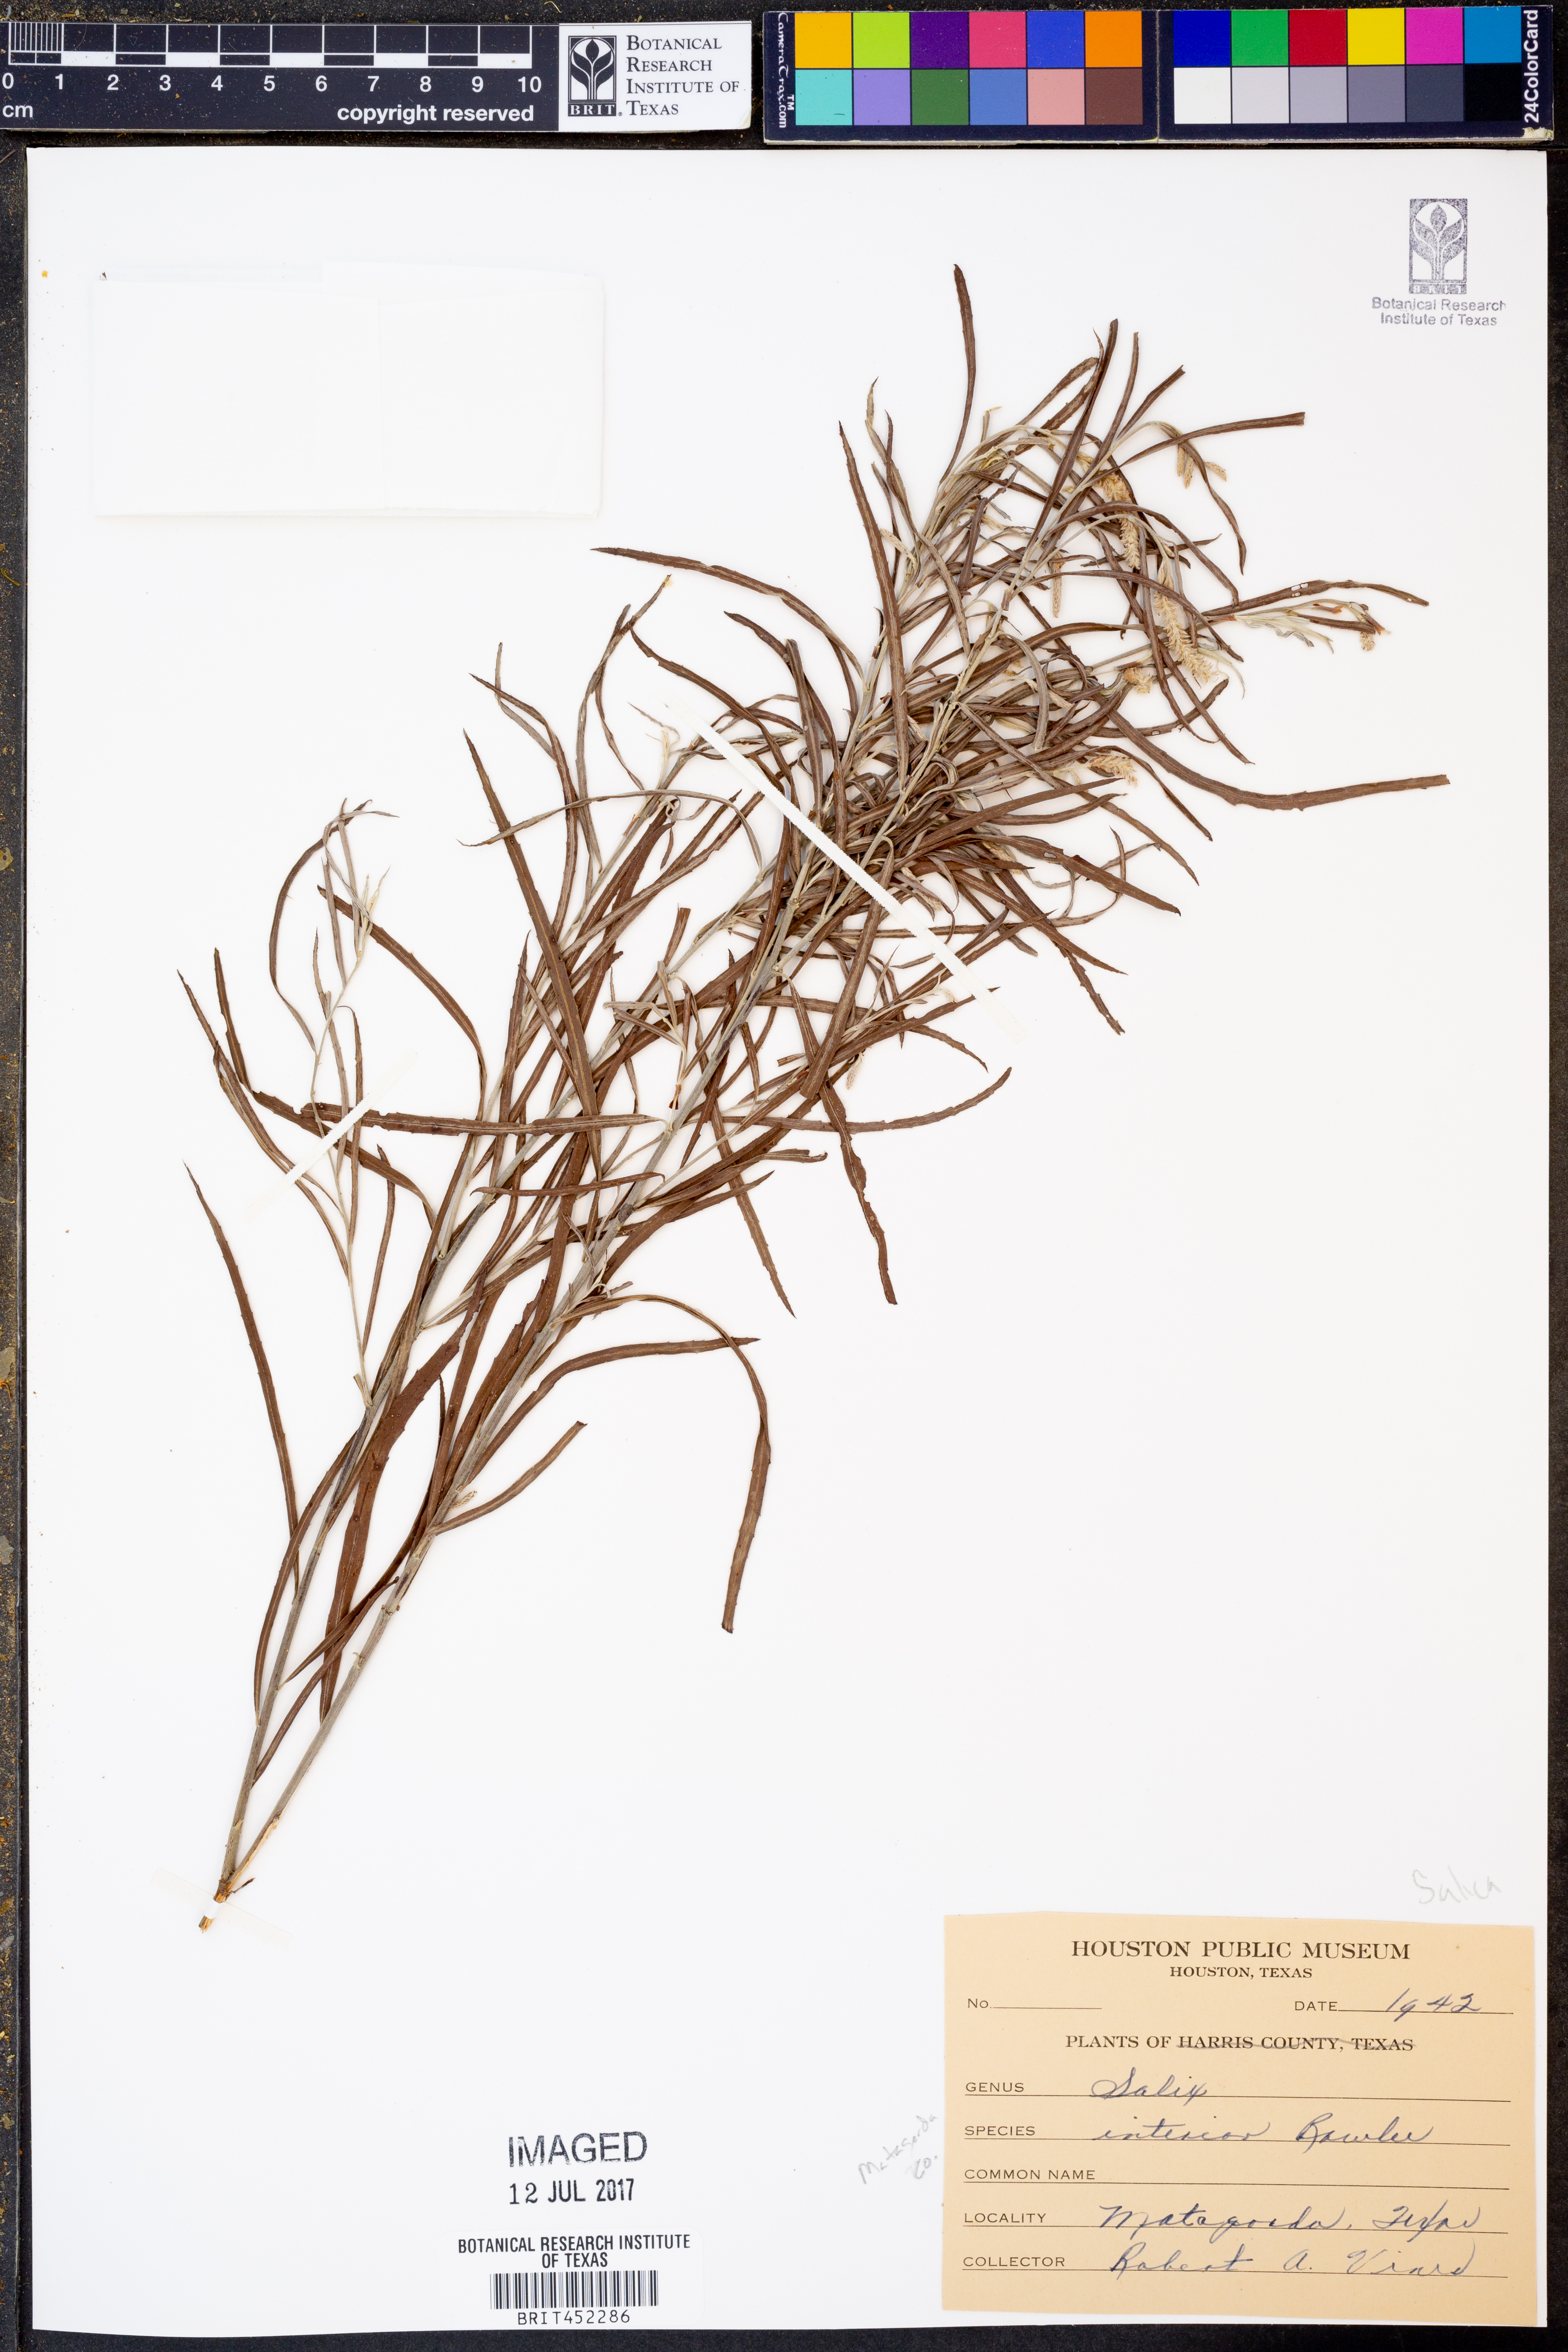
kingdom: Plantae
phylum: Tracheophyta
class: Magnoliopsida
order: Malpighiales
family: Salicaceae
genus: Salix
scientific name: Salix interior
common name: Sandbar willow
